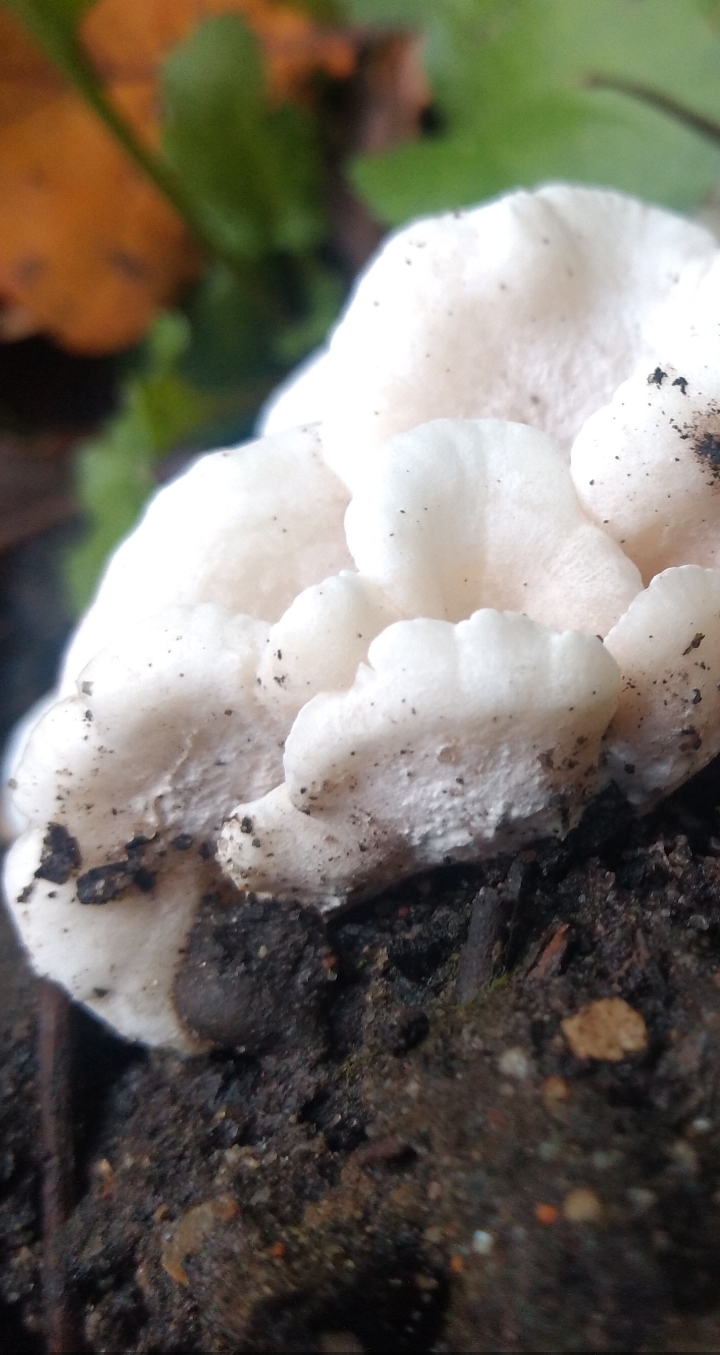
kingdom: Fungi
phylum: Basidiomycota
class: Agaricomycetes
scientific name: Agaricomycetes
